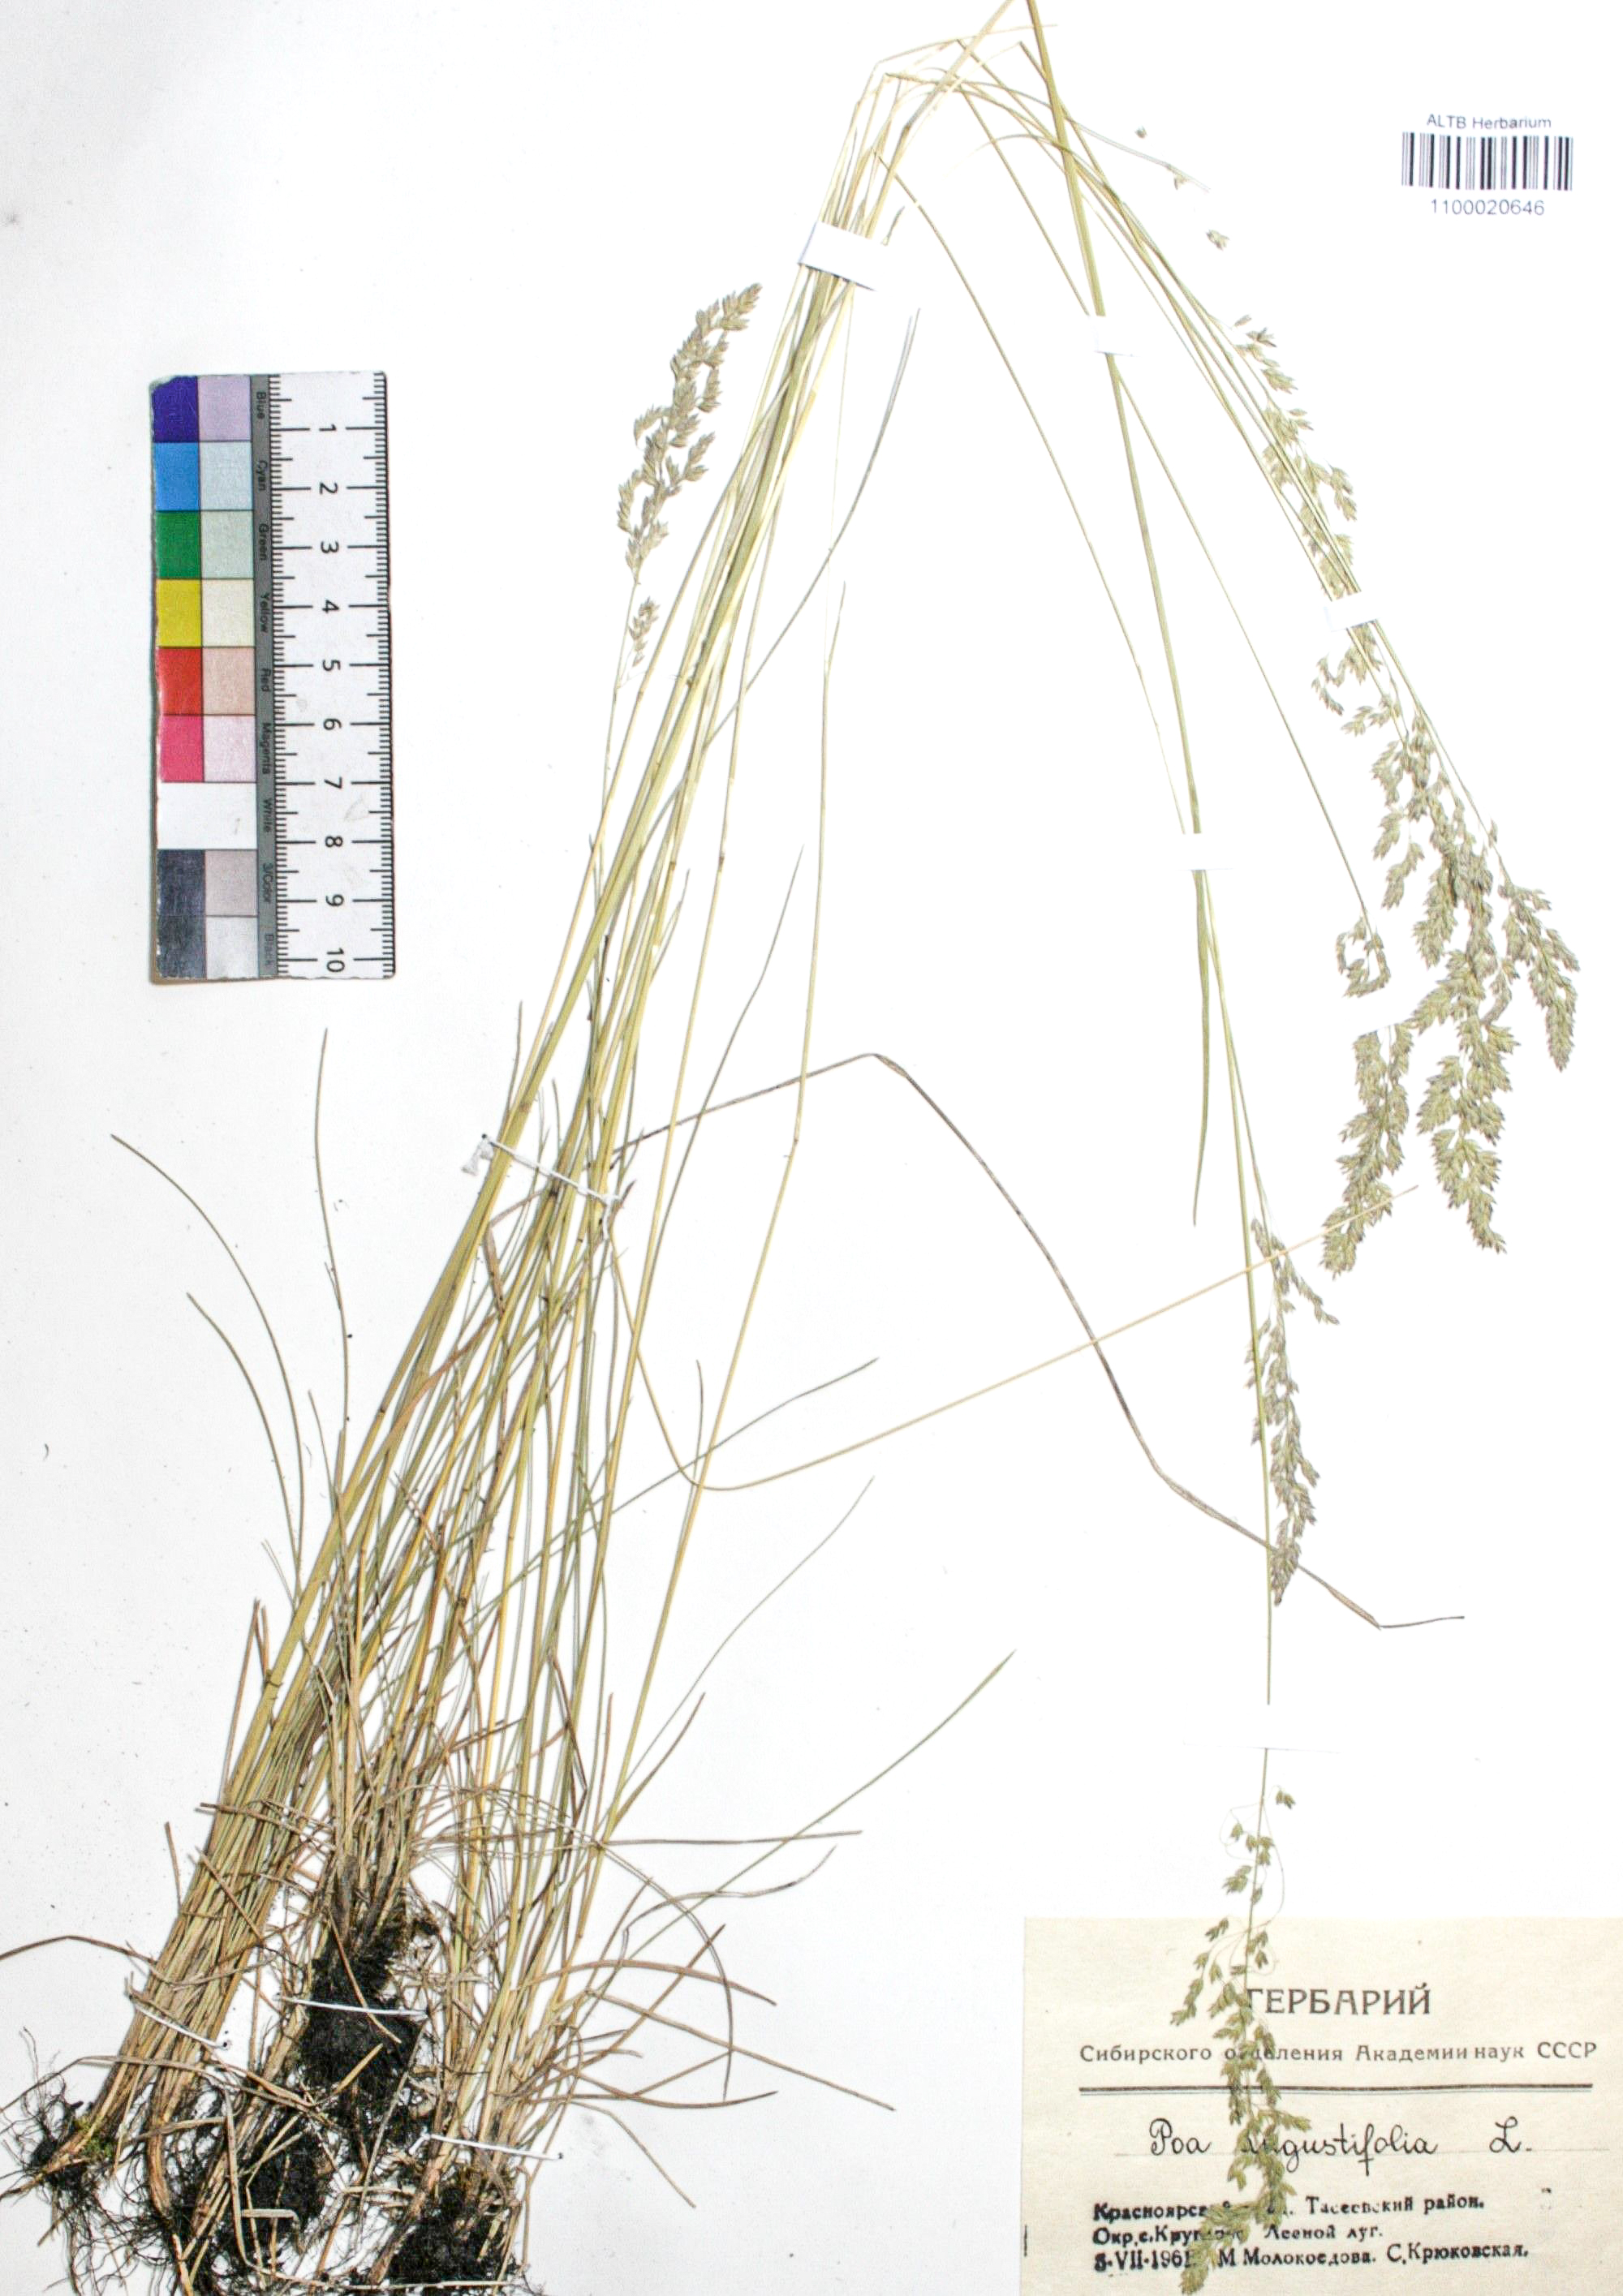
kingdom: Plantae
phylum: Tracheophyta
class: Liliopsida
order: Poales
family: Poaceae
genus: Poa
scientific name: Poa angustifolia
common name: Narrow-leaved meadow-grass
